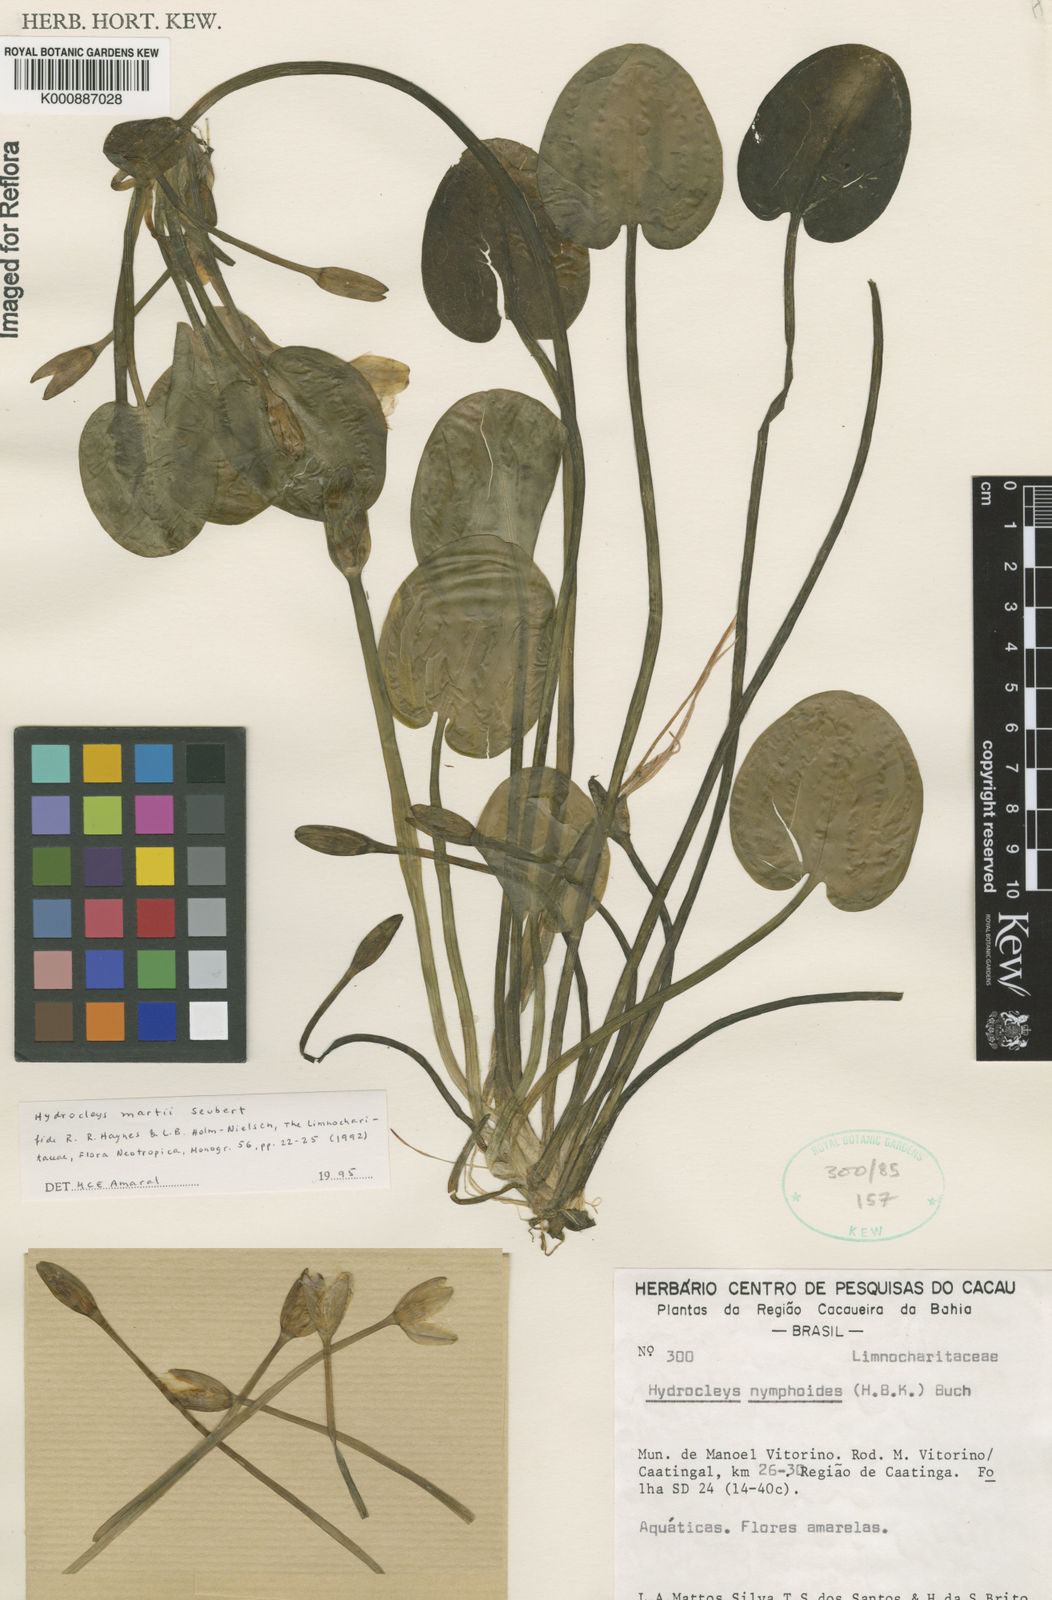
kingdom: Plantae
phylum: Tracheophyta
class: Liliopsida
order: Alismatales
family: Alismataceae
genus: Hydrocleys
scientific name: Hydrocleys martii
